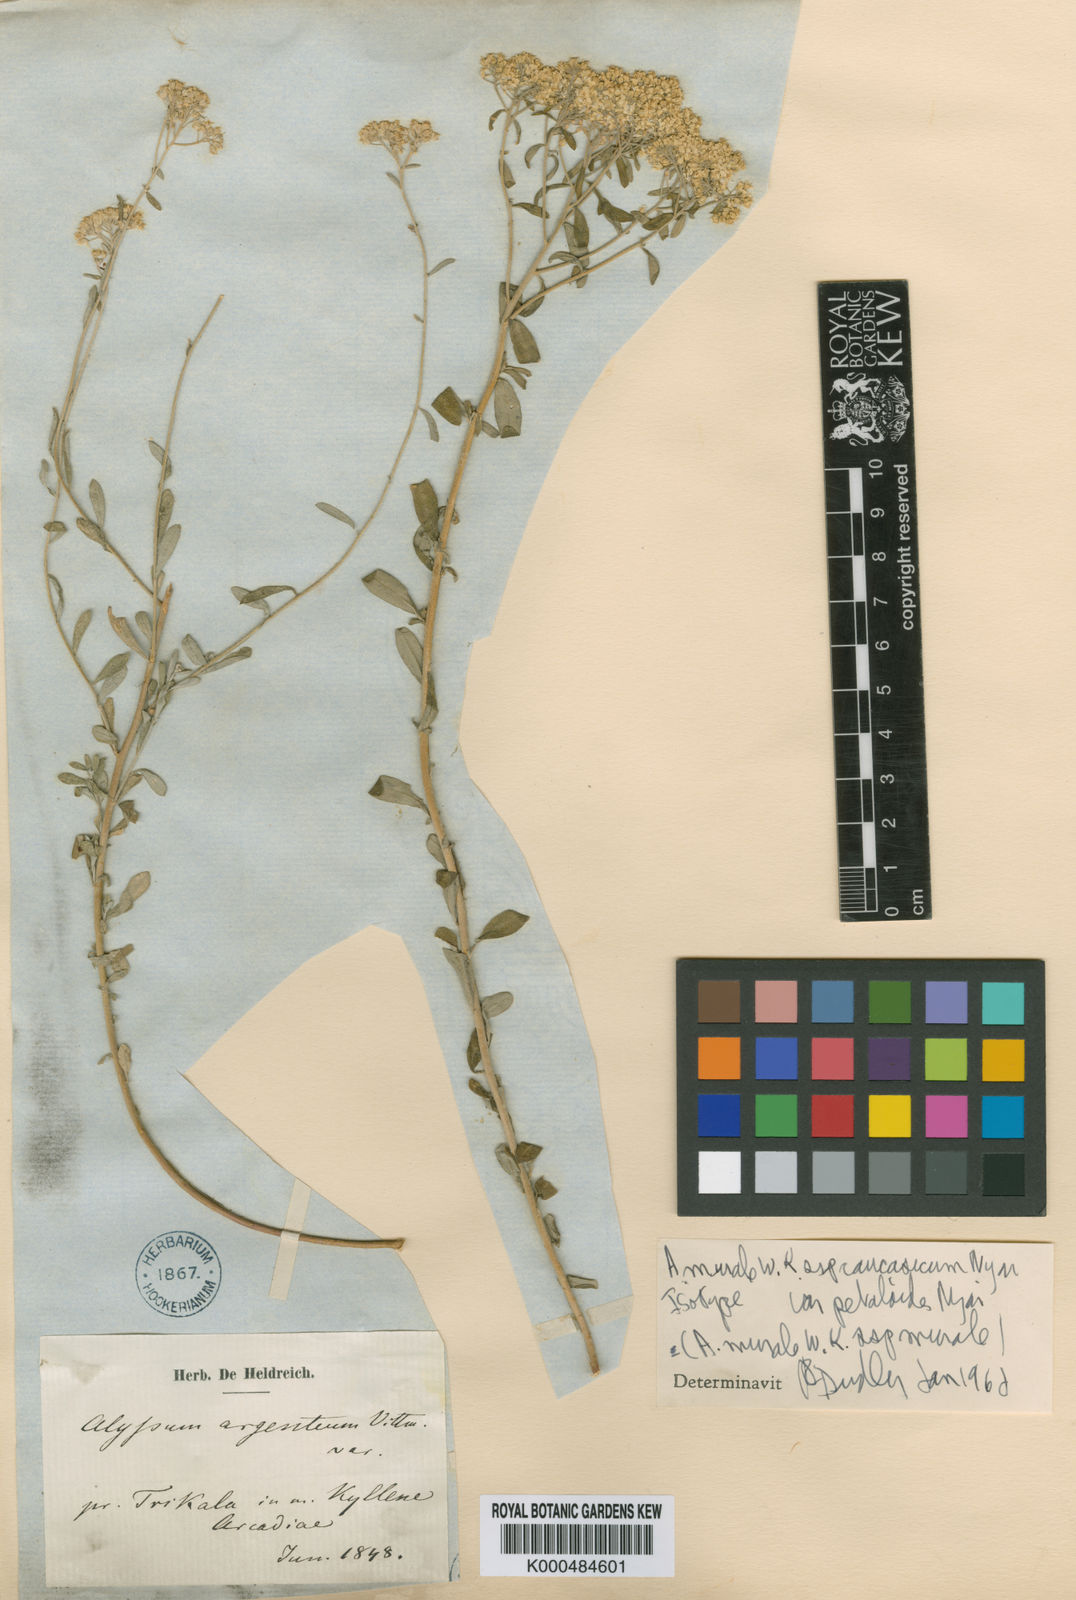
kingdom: Plantae
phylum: Tracheophyta
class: Magnoliopsida
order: Brassicales
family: Brassicaceae
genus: Odontarrhena
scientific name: Odontarrhena muralis
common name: Rock alyssum
